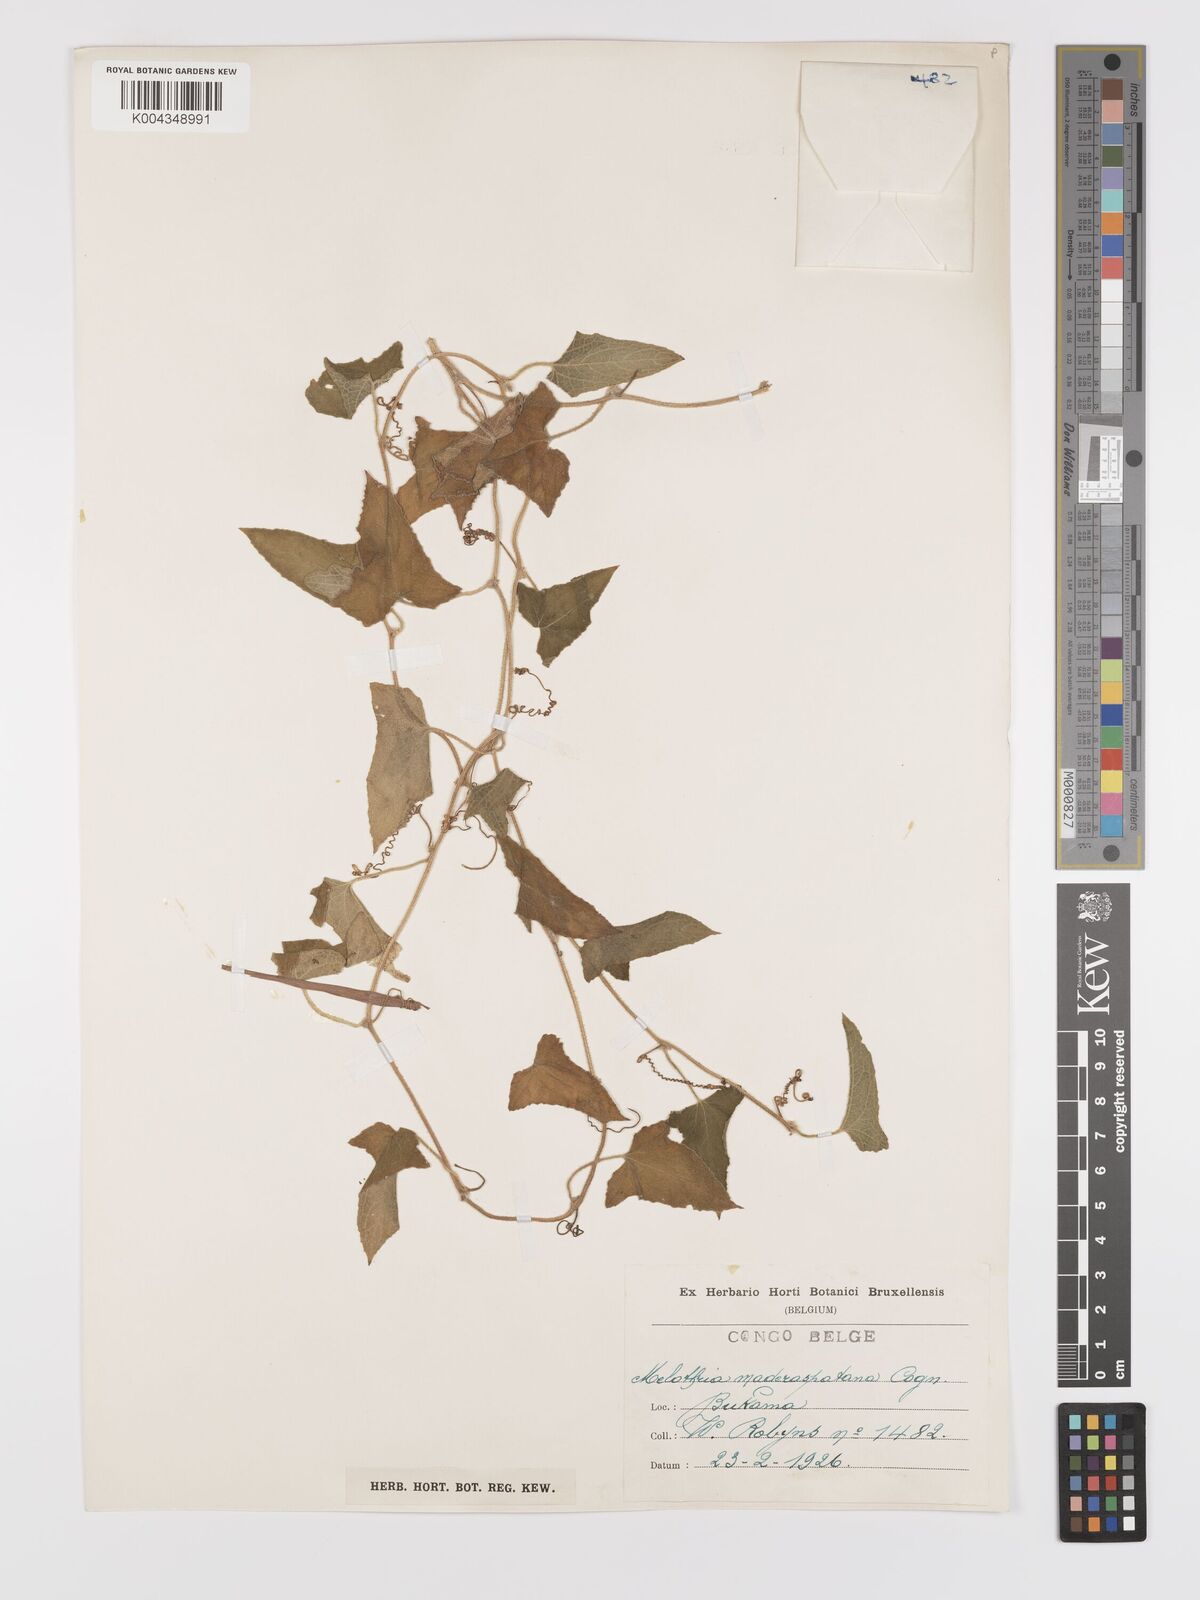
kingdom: Plantae
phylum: Tracheophyta
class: Magnoliopsida
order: Cucurbitales
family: Cucurbitaceae
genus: Cucumis
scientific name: Cucumis maderaspatanus
